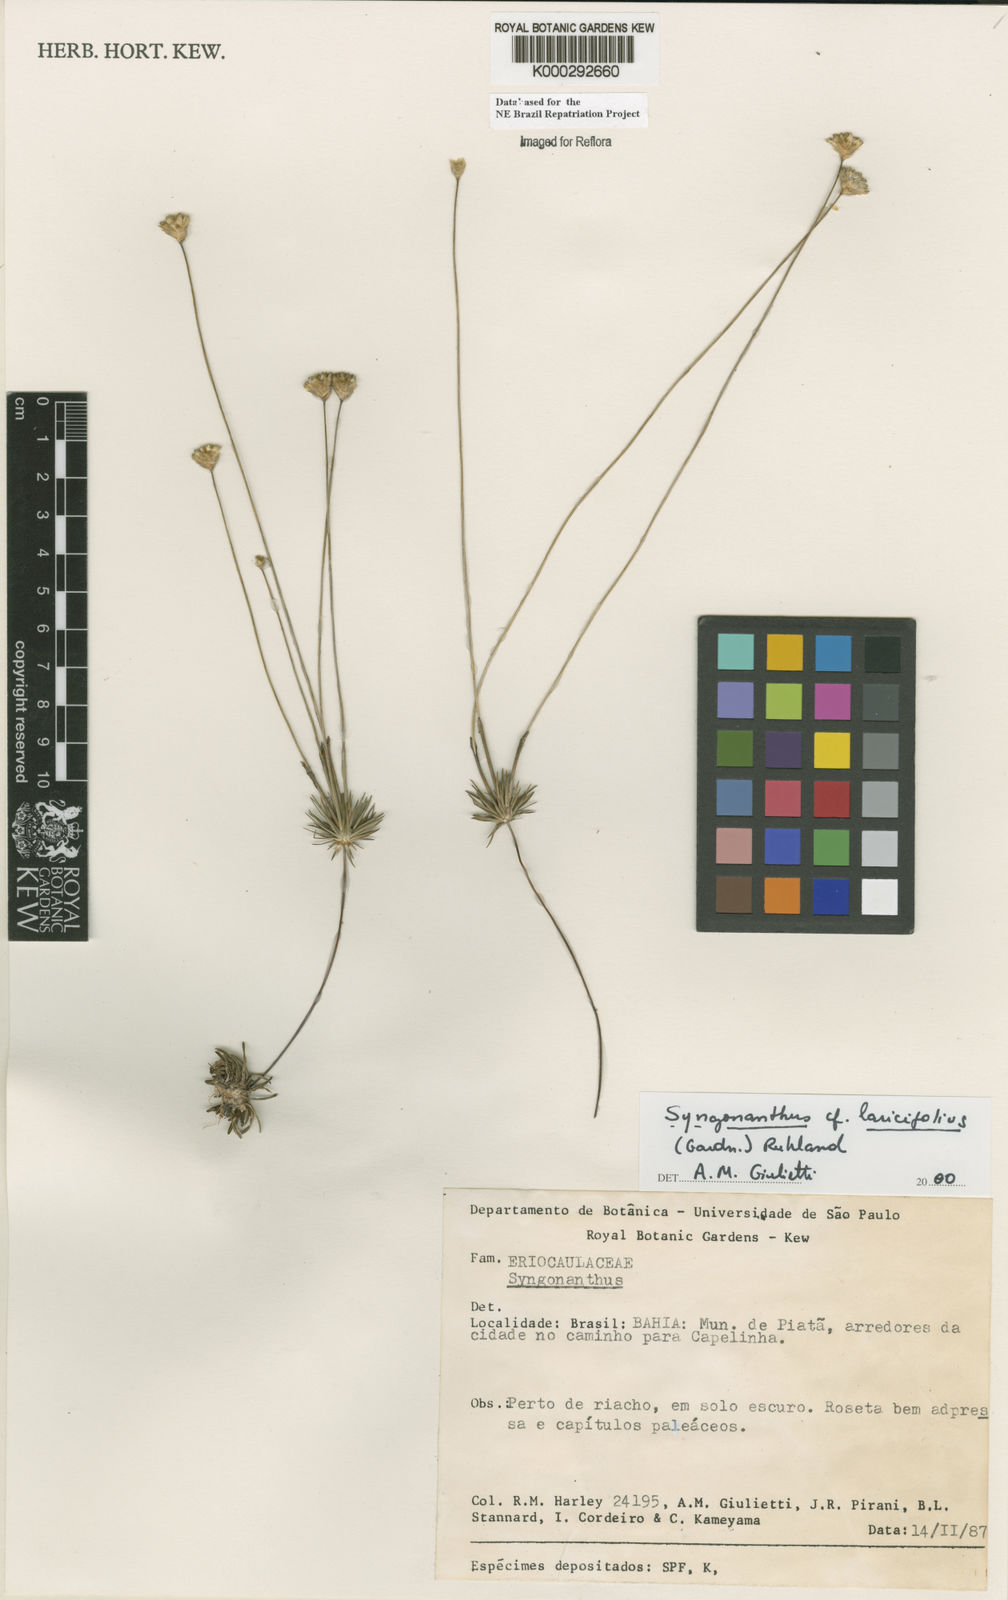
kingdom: Plantae
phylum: Tracheophyta
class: Liliopsida
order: Poales
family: Eriocaulaceae
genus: Syngonanthus
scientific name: Syngonanthus laricifolius
